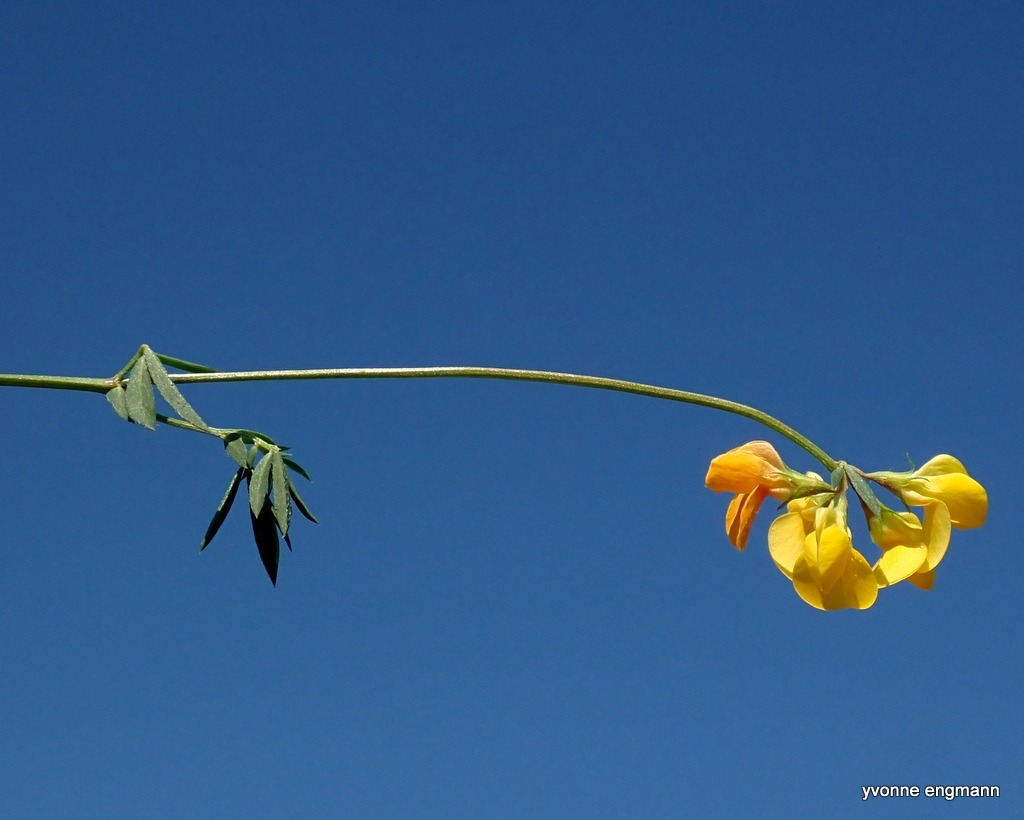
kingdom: Plantae
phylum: Tracheophyta
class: Magnoliopsida
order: Fabales
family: Fabaceae
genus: Lotus
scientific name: Lotus corniculatus
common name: Almindelig kællingetand
